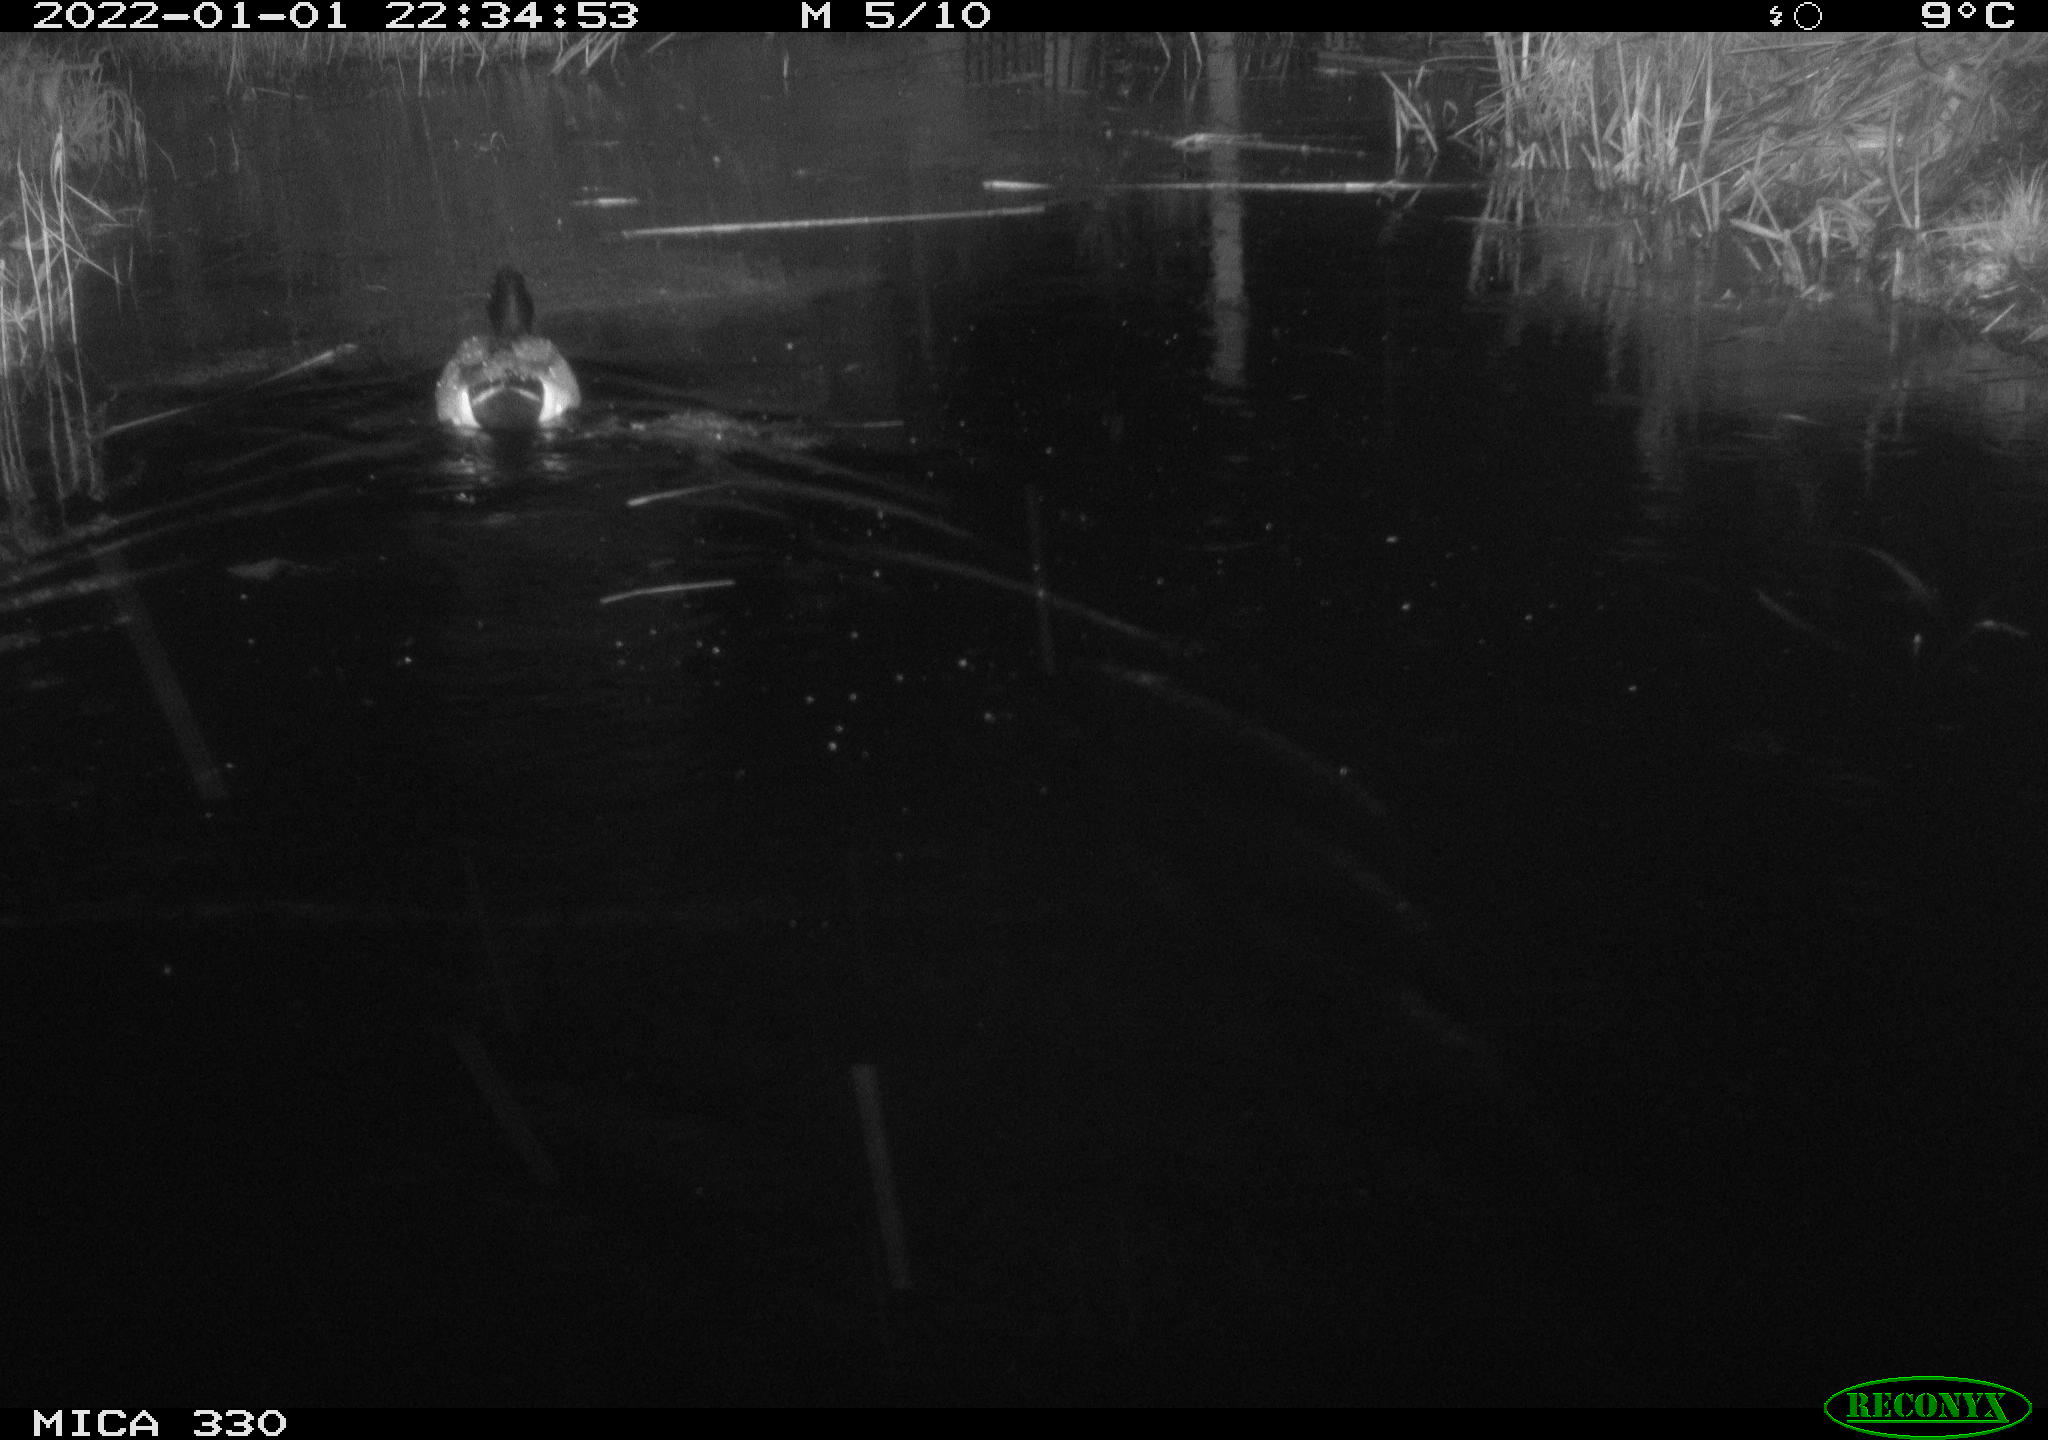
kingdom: Animalia
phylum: Chordata
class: Aves
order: Anseriformes
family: Anatidae
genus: Anas
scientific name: Anas platyrhynchos
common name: Mallard
